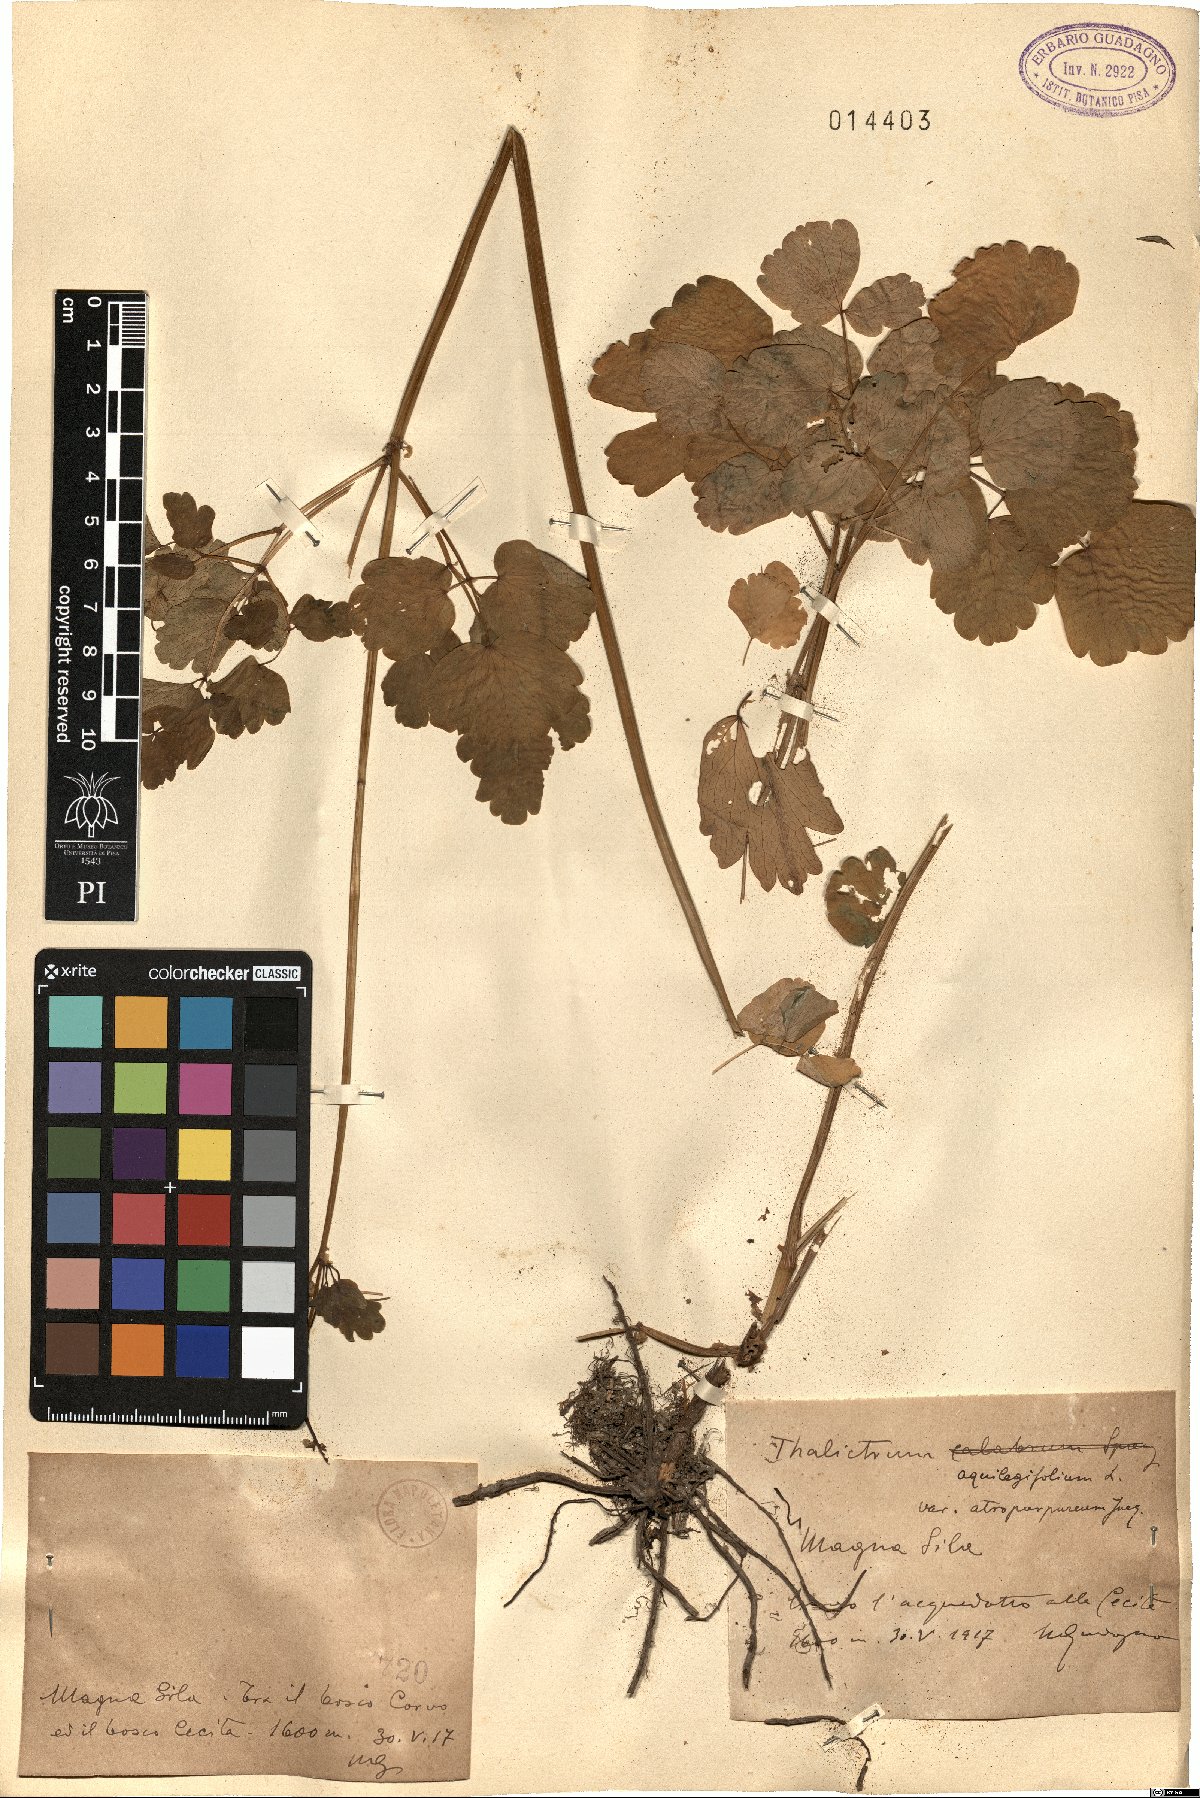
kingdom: Plantae
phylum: Tracheophyta
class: Magnoliopsida
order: Ranunculales
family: Ranunculaceae
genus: Thalictrum
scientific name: Thalictrum aquilegiifolium
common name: French meadow-rue
